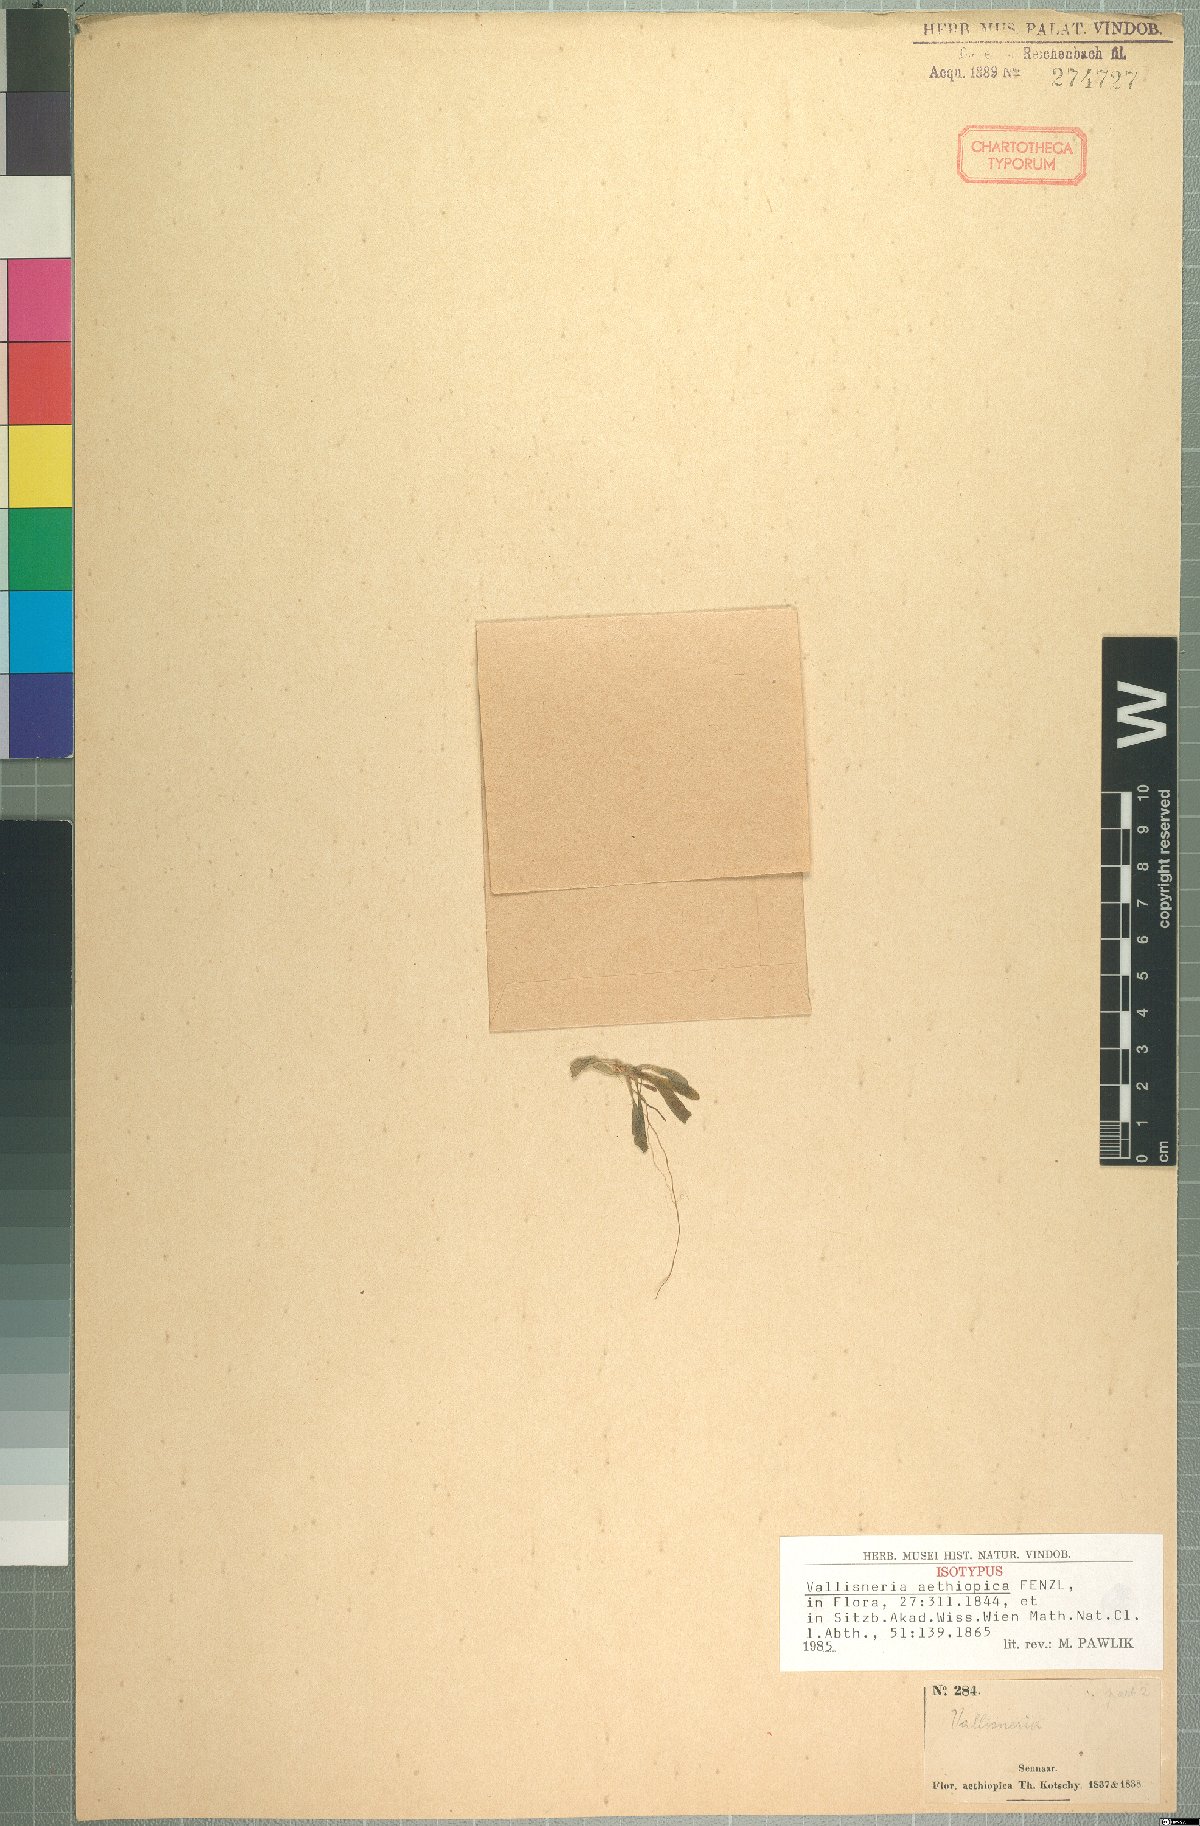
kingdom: Plantae
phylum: Tracheophyta
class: Liliopsida
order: Alismatales
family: Hydrocharitaceae
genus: Vallisneria
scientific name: Vallisneria spiralis
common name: Tapegrass
